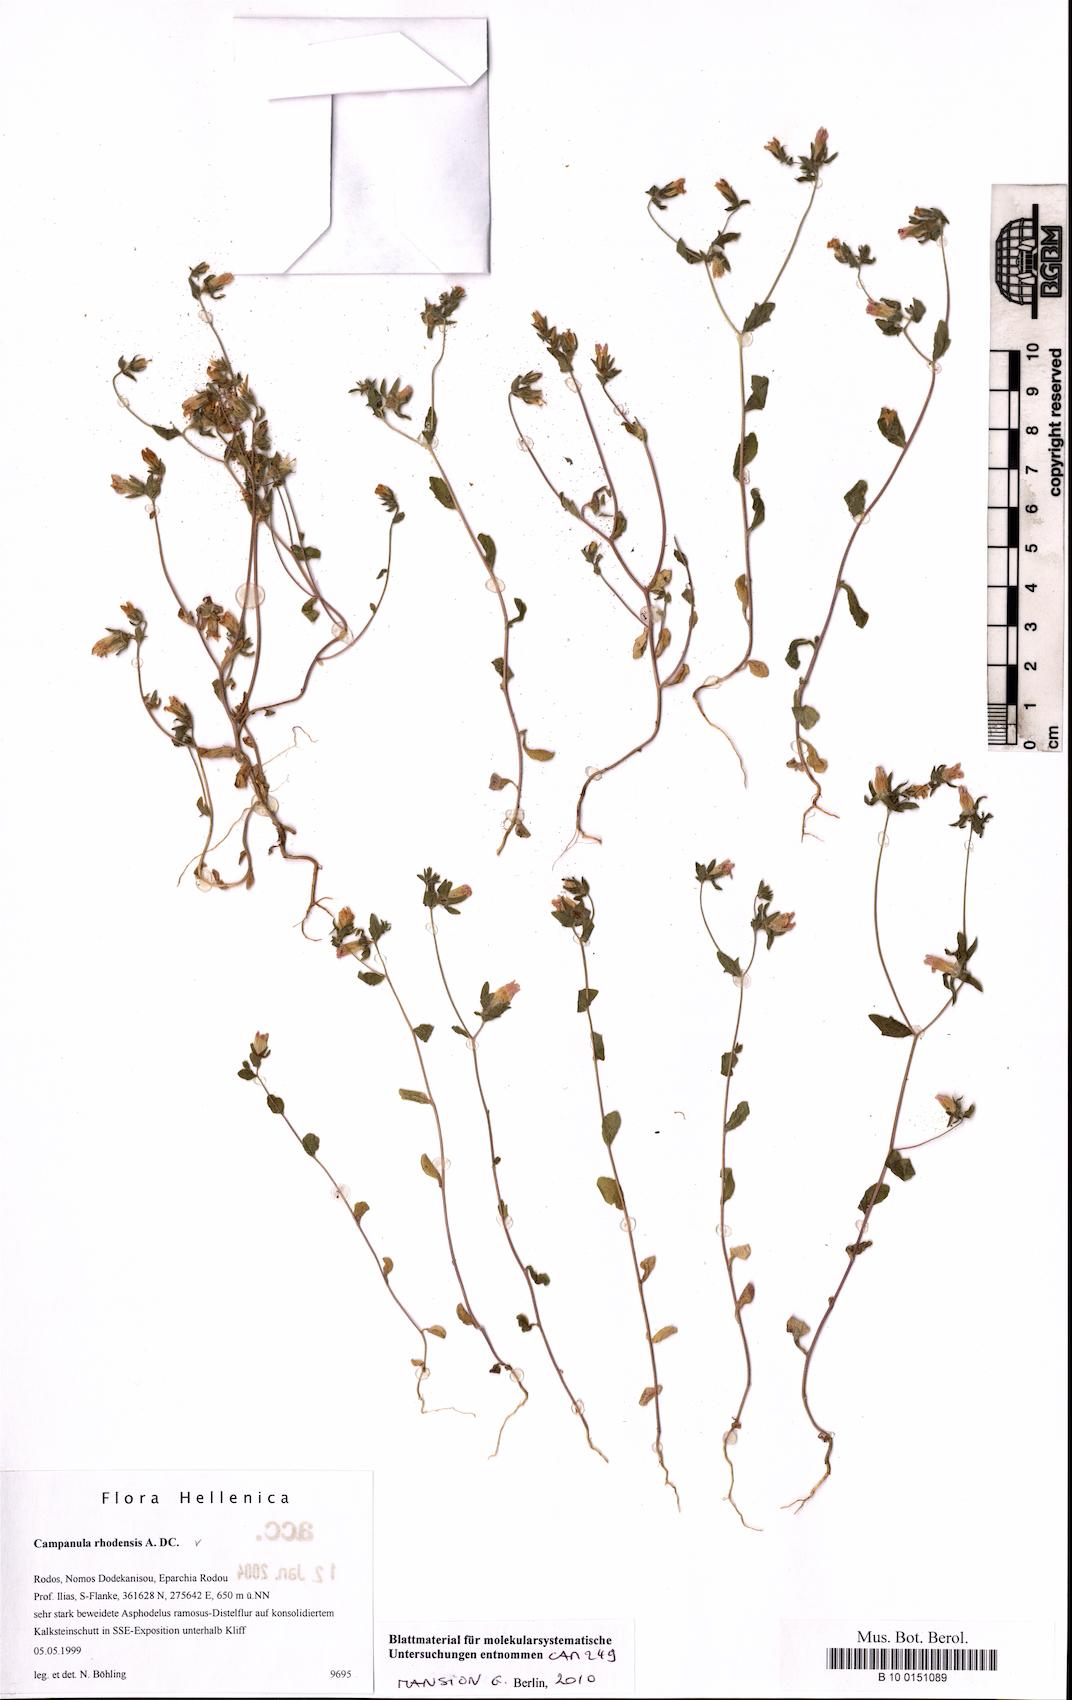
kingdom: Plantae
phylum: Tracheophyta
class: Magnoliopsida
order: Asterales
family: Campanulaceae
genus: Campanula
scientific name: Campanula rhodensis
